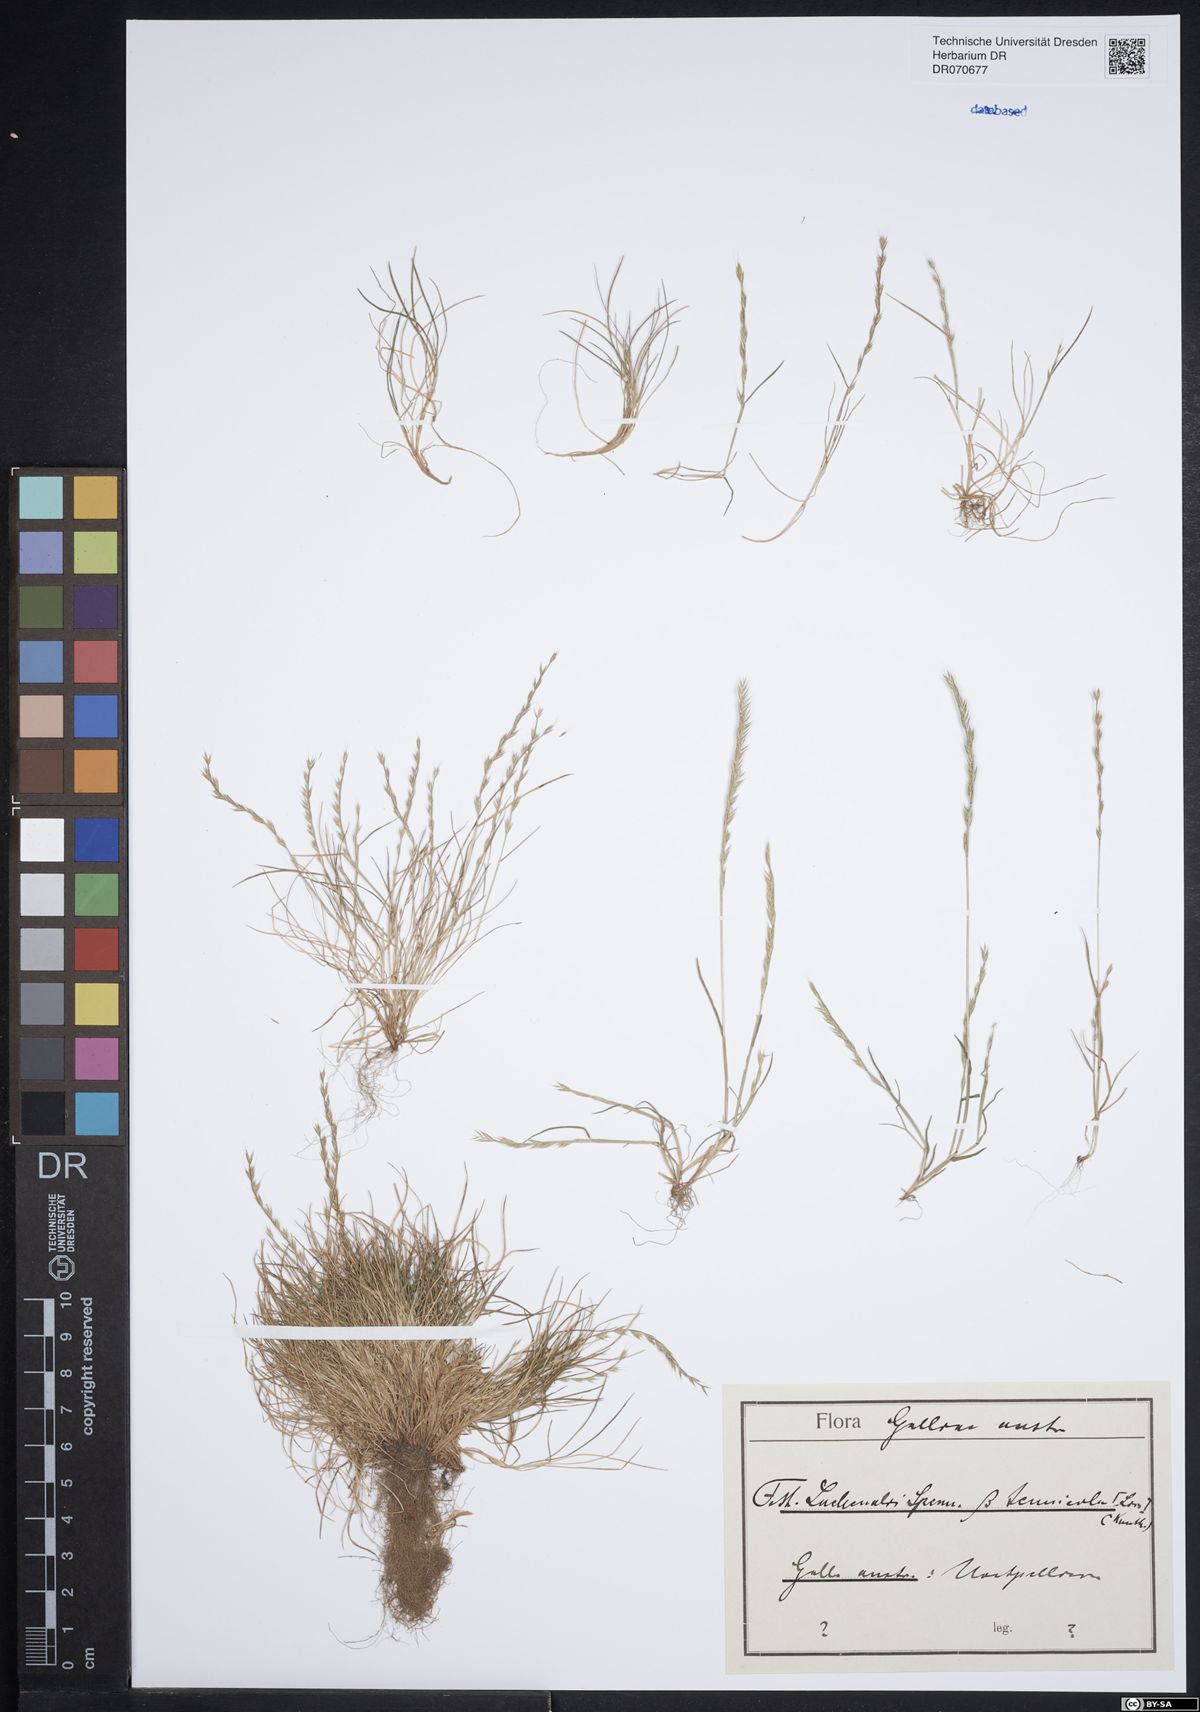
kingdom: Plantae
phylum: Tracheophyta
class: Liliopsida
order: Poales
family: Poaceae
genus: Festuca
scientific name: Festuca lachenalii
